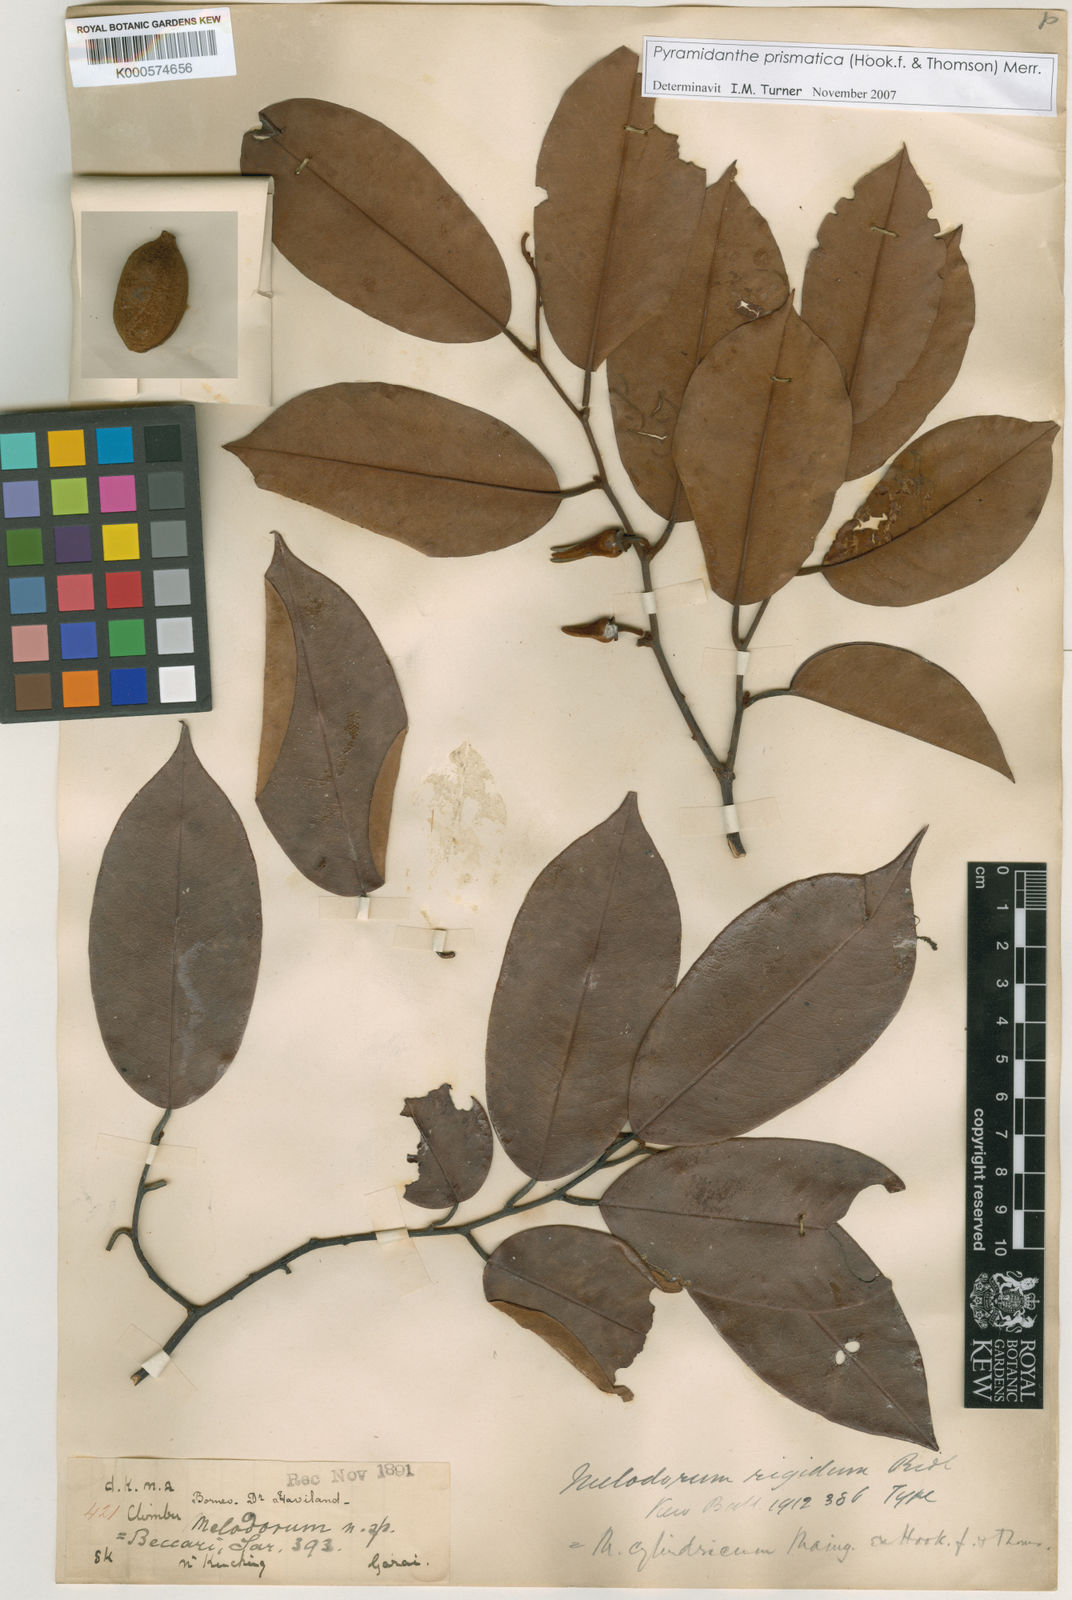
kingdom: Plantae
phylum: Tracheophyta
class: Magnoliopsida
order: Magnoliales
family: Annonaceae
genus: Pyramidanthe
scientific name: Pyramidanthe prismatica
